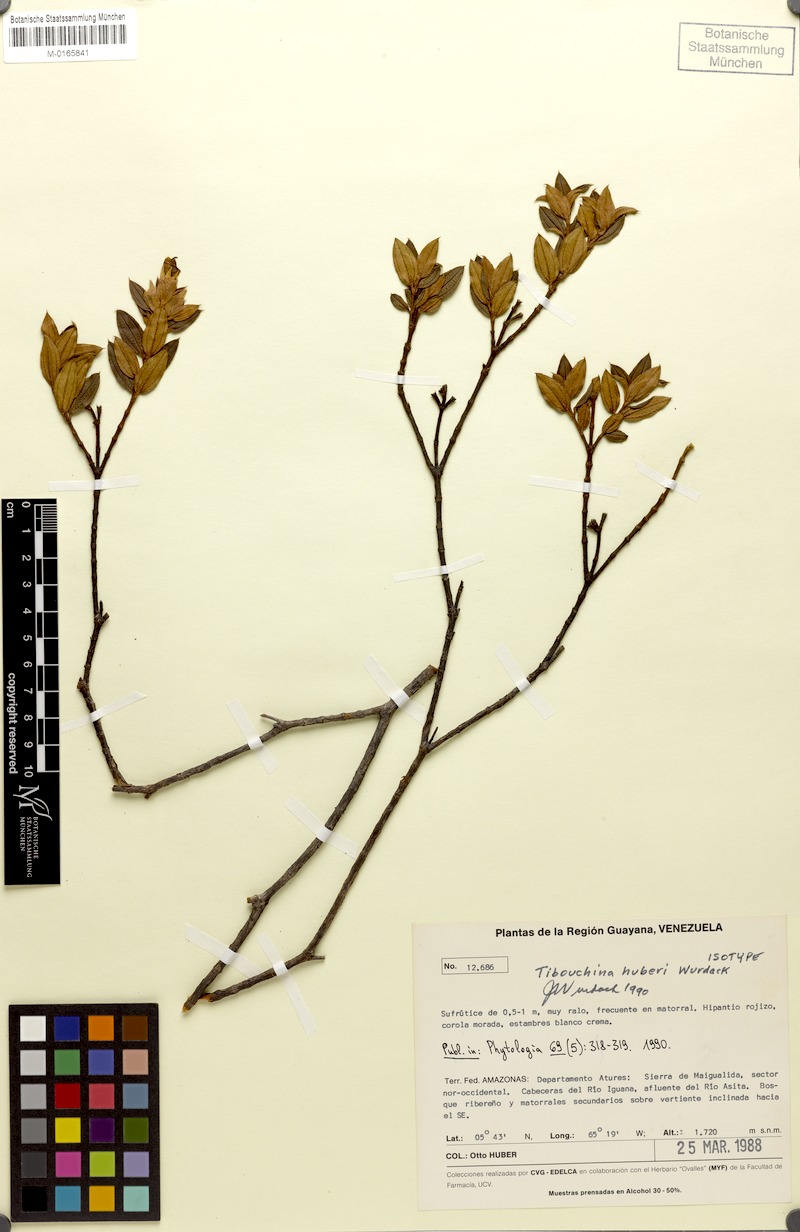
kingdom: Plantae
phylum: Tracheophyta
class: Magnoliopsida
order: Myrtales
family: Melastomataceae
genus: Tibouchina
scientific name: Tibouchina huberi
